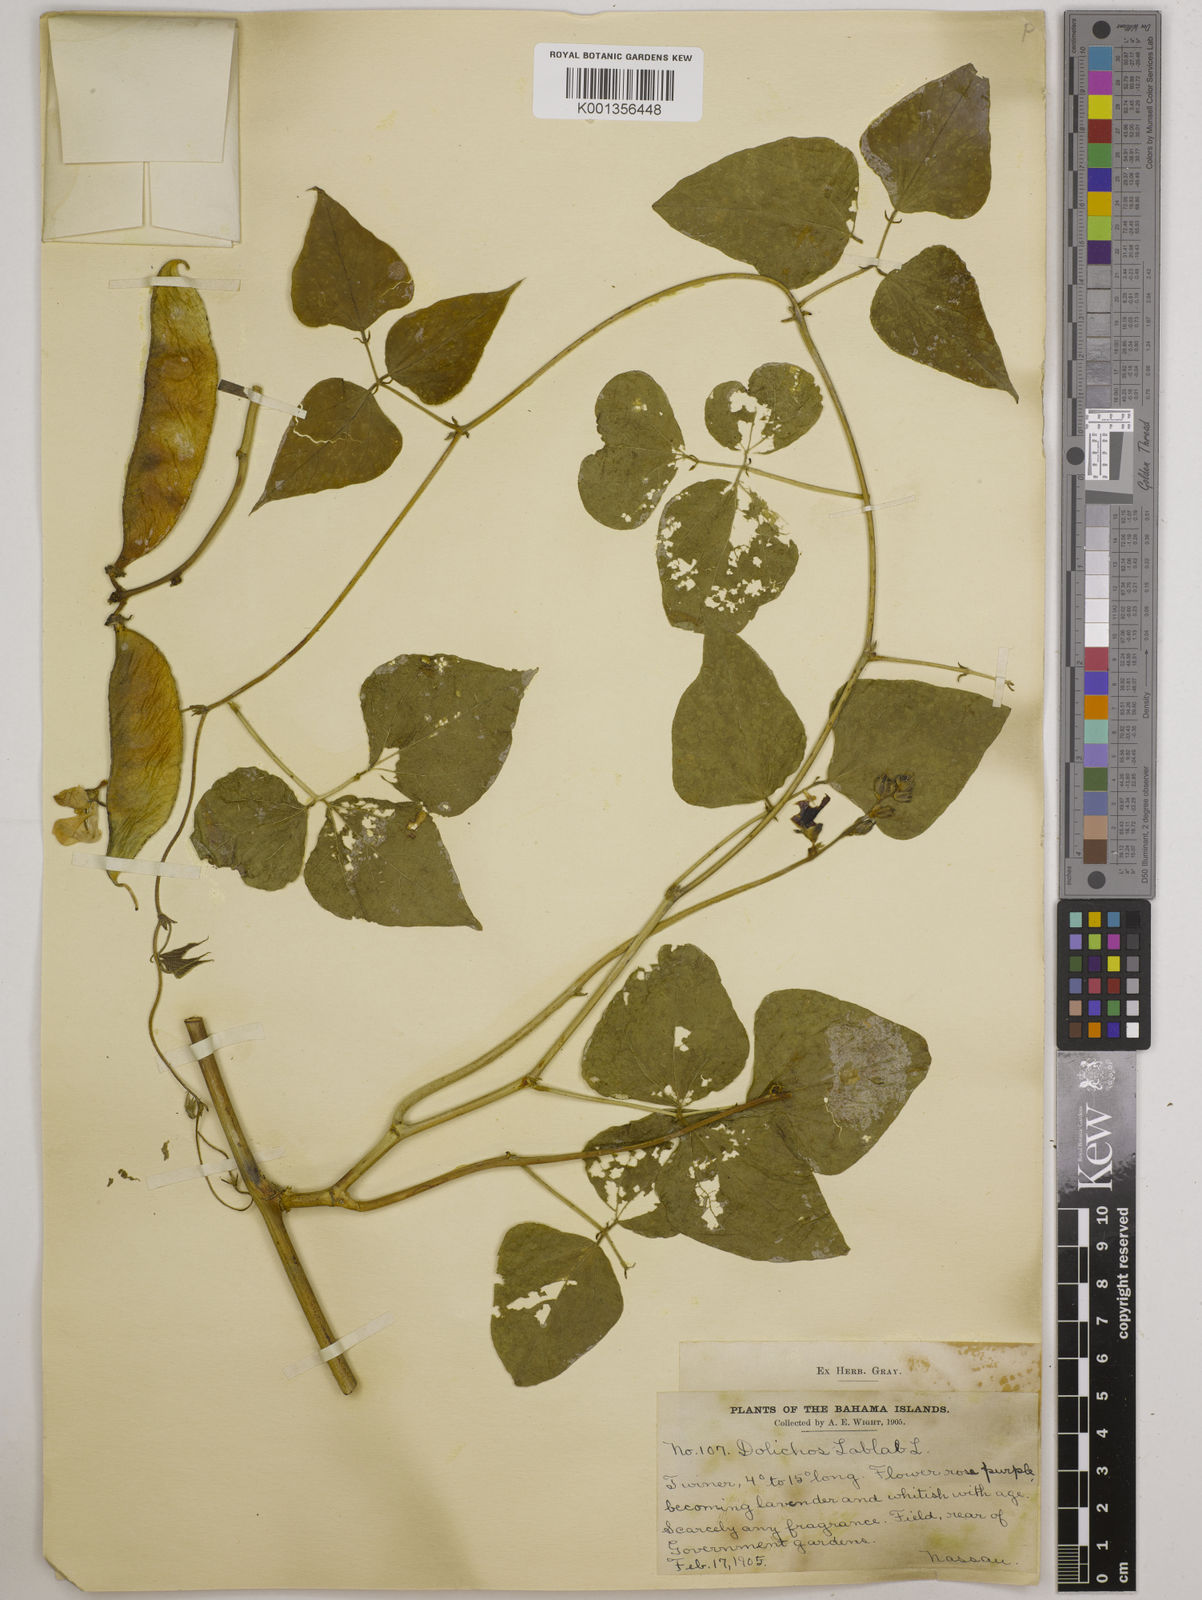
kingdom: Plantae
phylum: Tracheophyta
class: Magnoliopsida
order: Fabales
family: Fabaceae
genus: Lablab
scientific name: Lablab purpureus
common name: Lablab-bean
